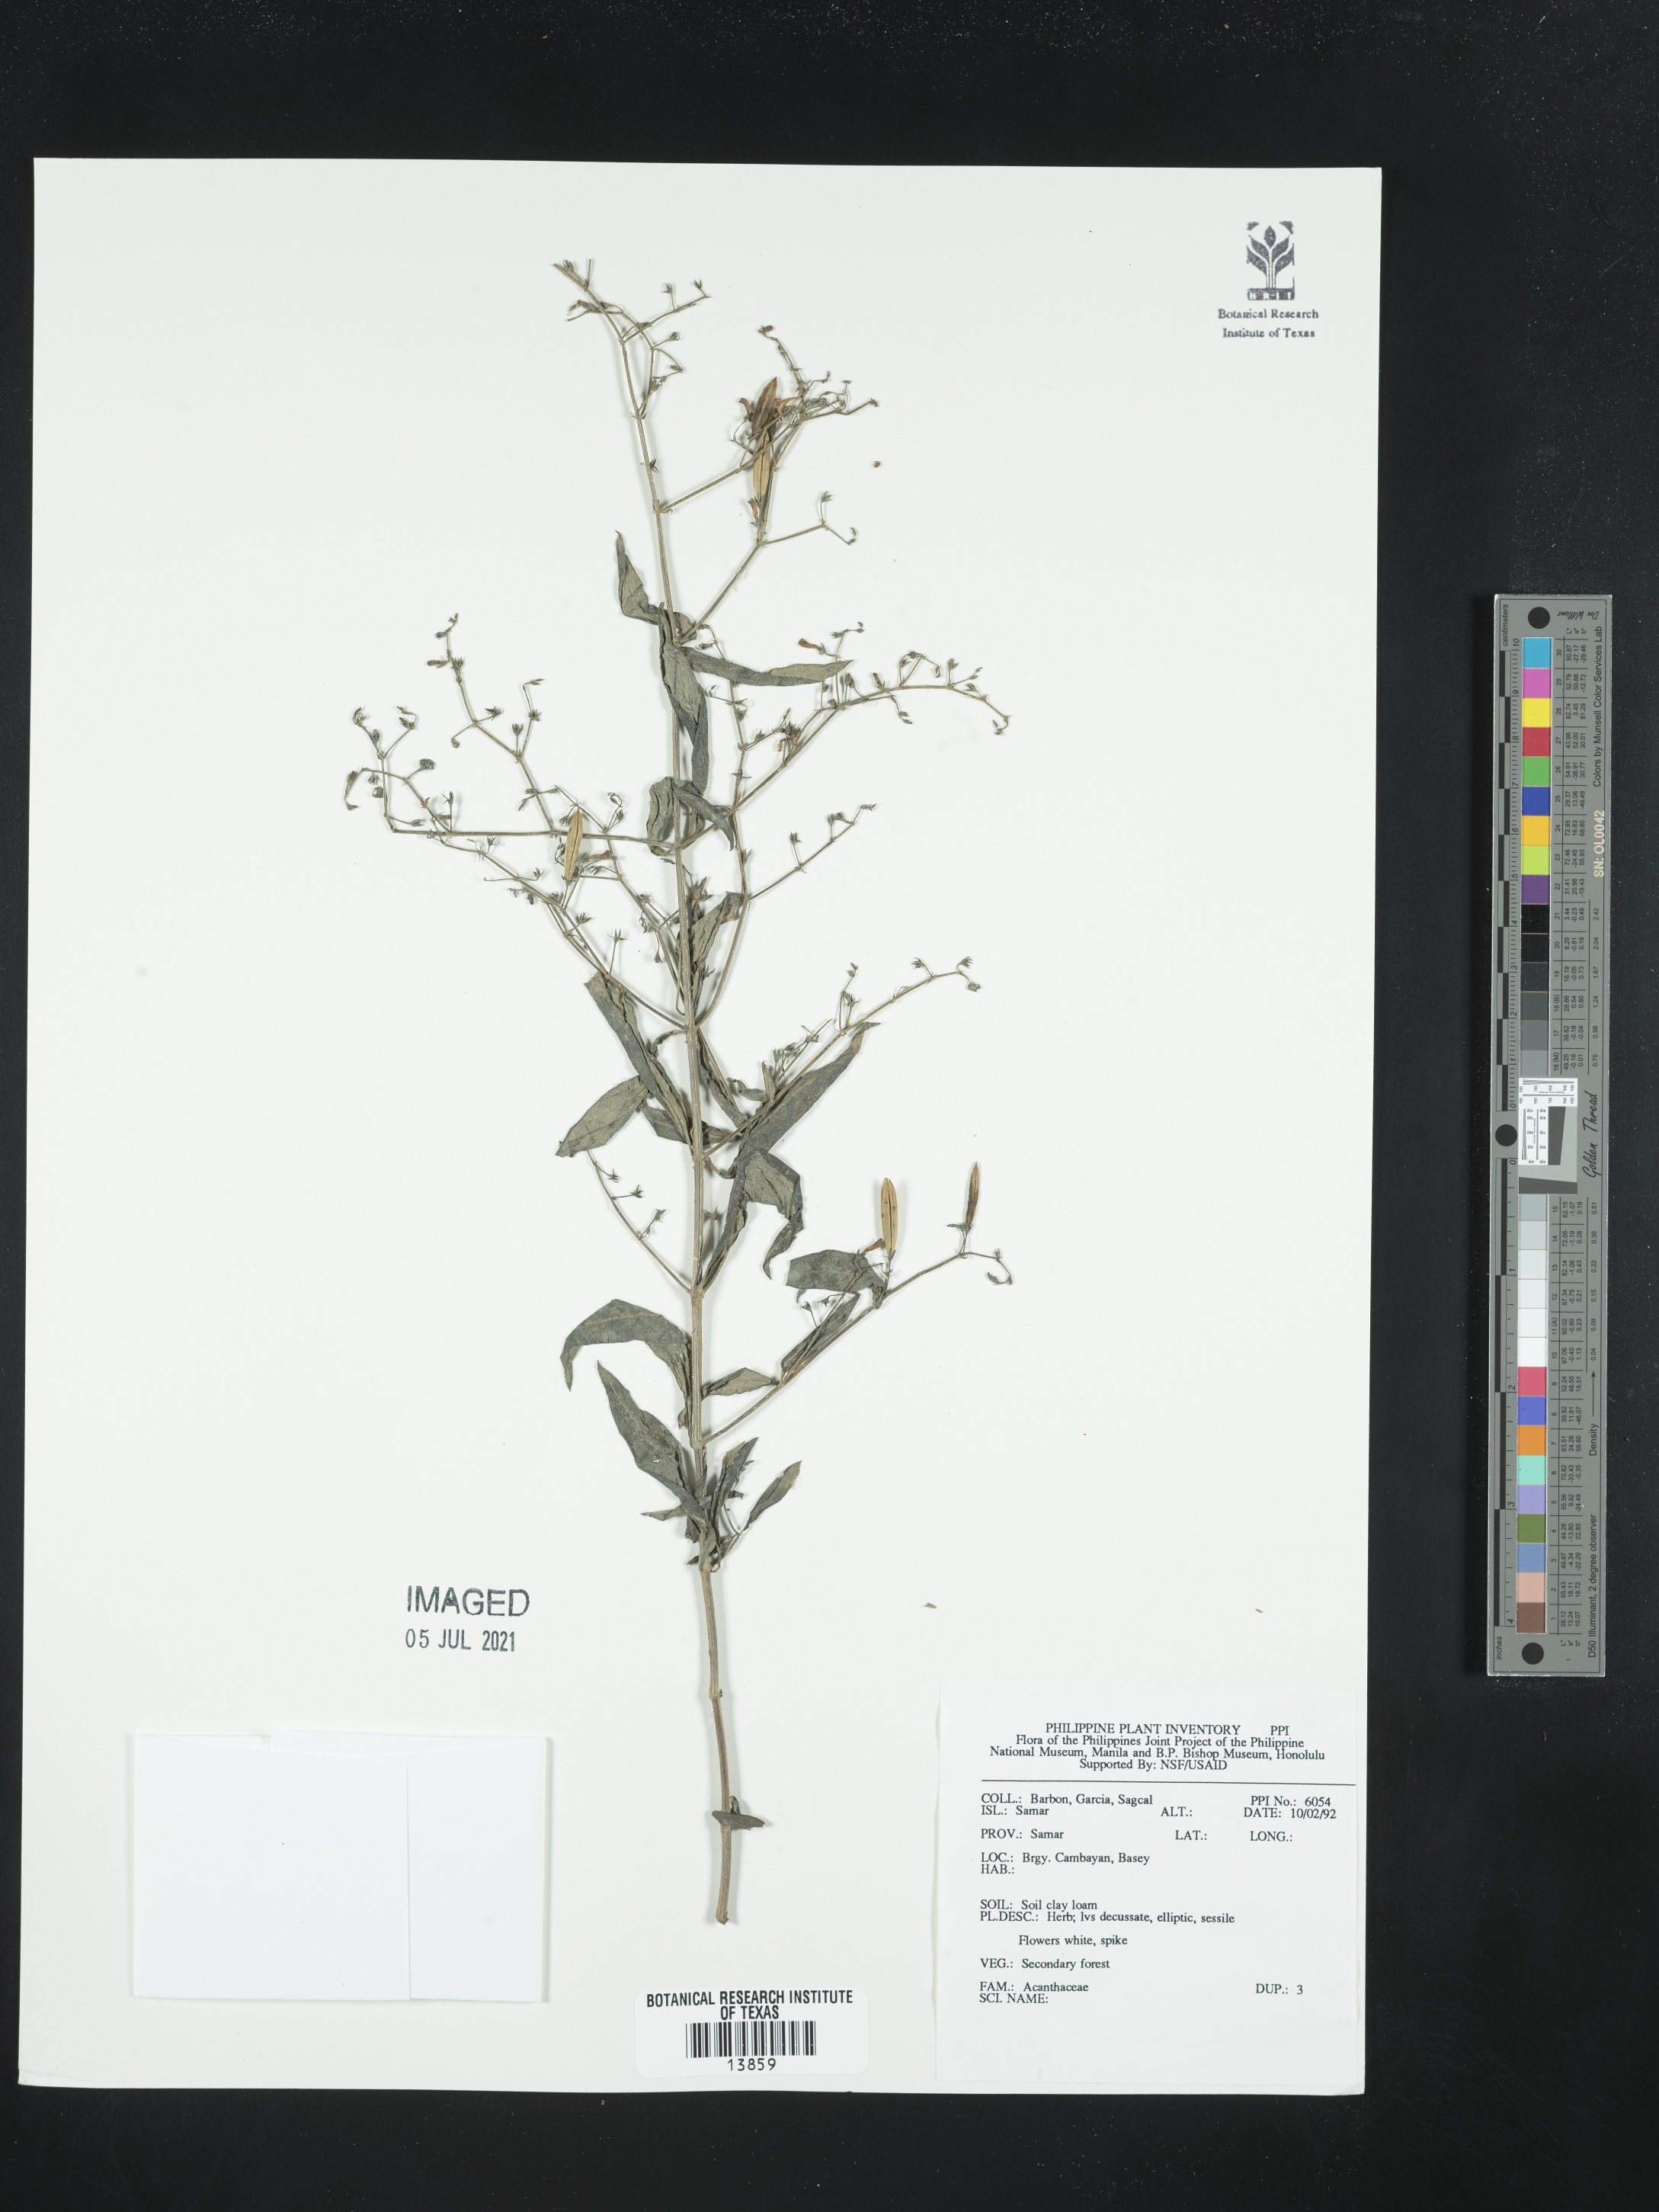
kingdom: Plantae
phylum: Tracheophyta
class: Magnoliopsida
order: Lamiales
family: Acanthaceae
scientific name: Acanthaceae
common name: Acanthaceae
